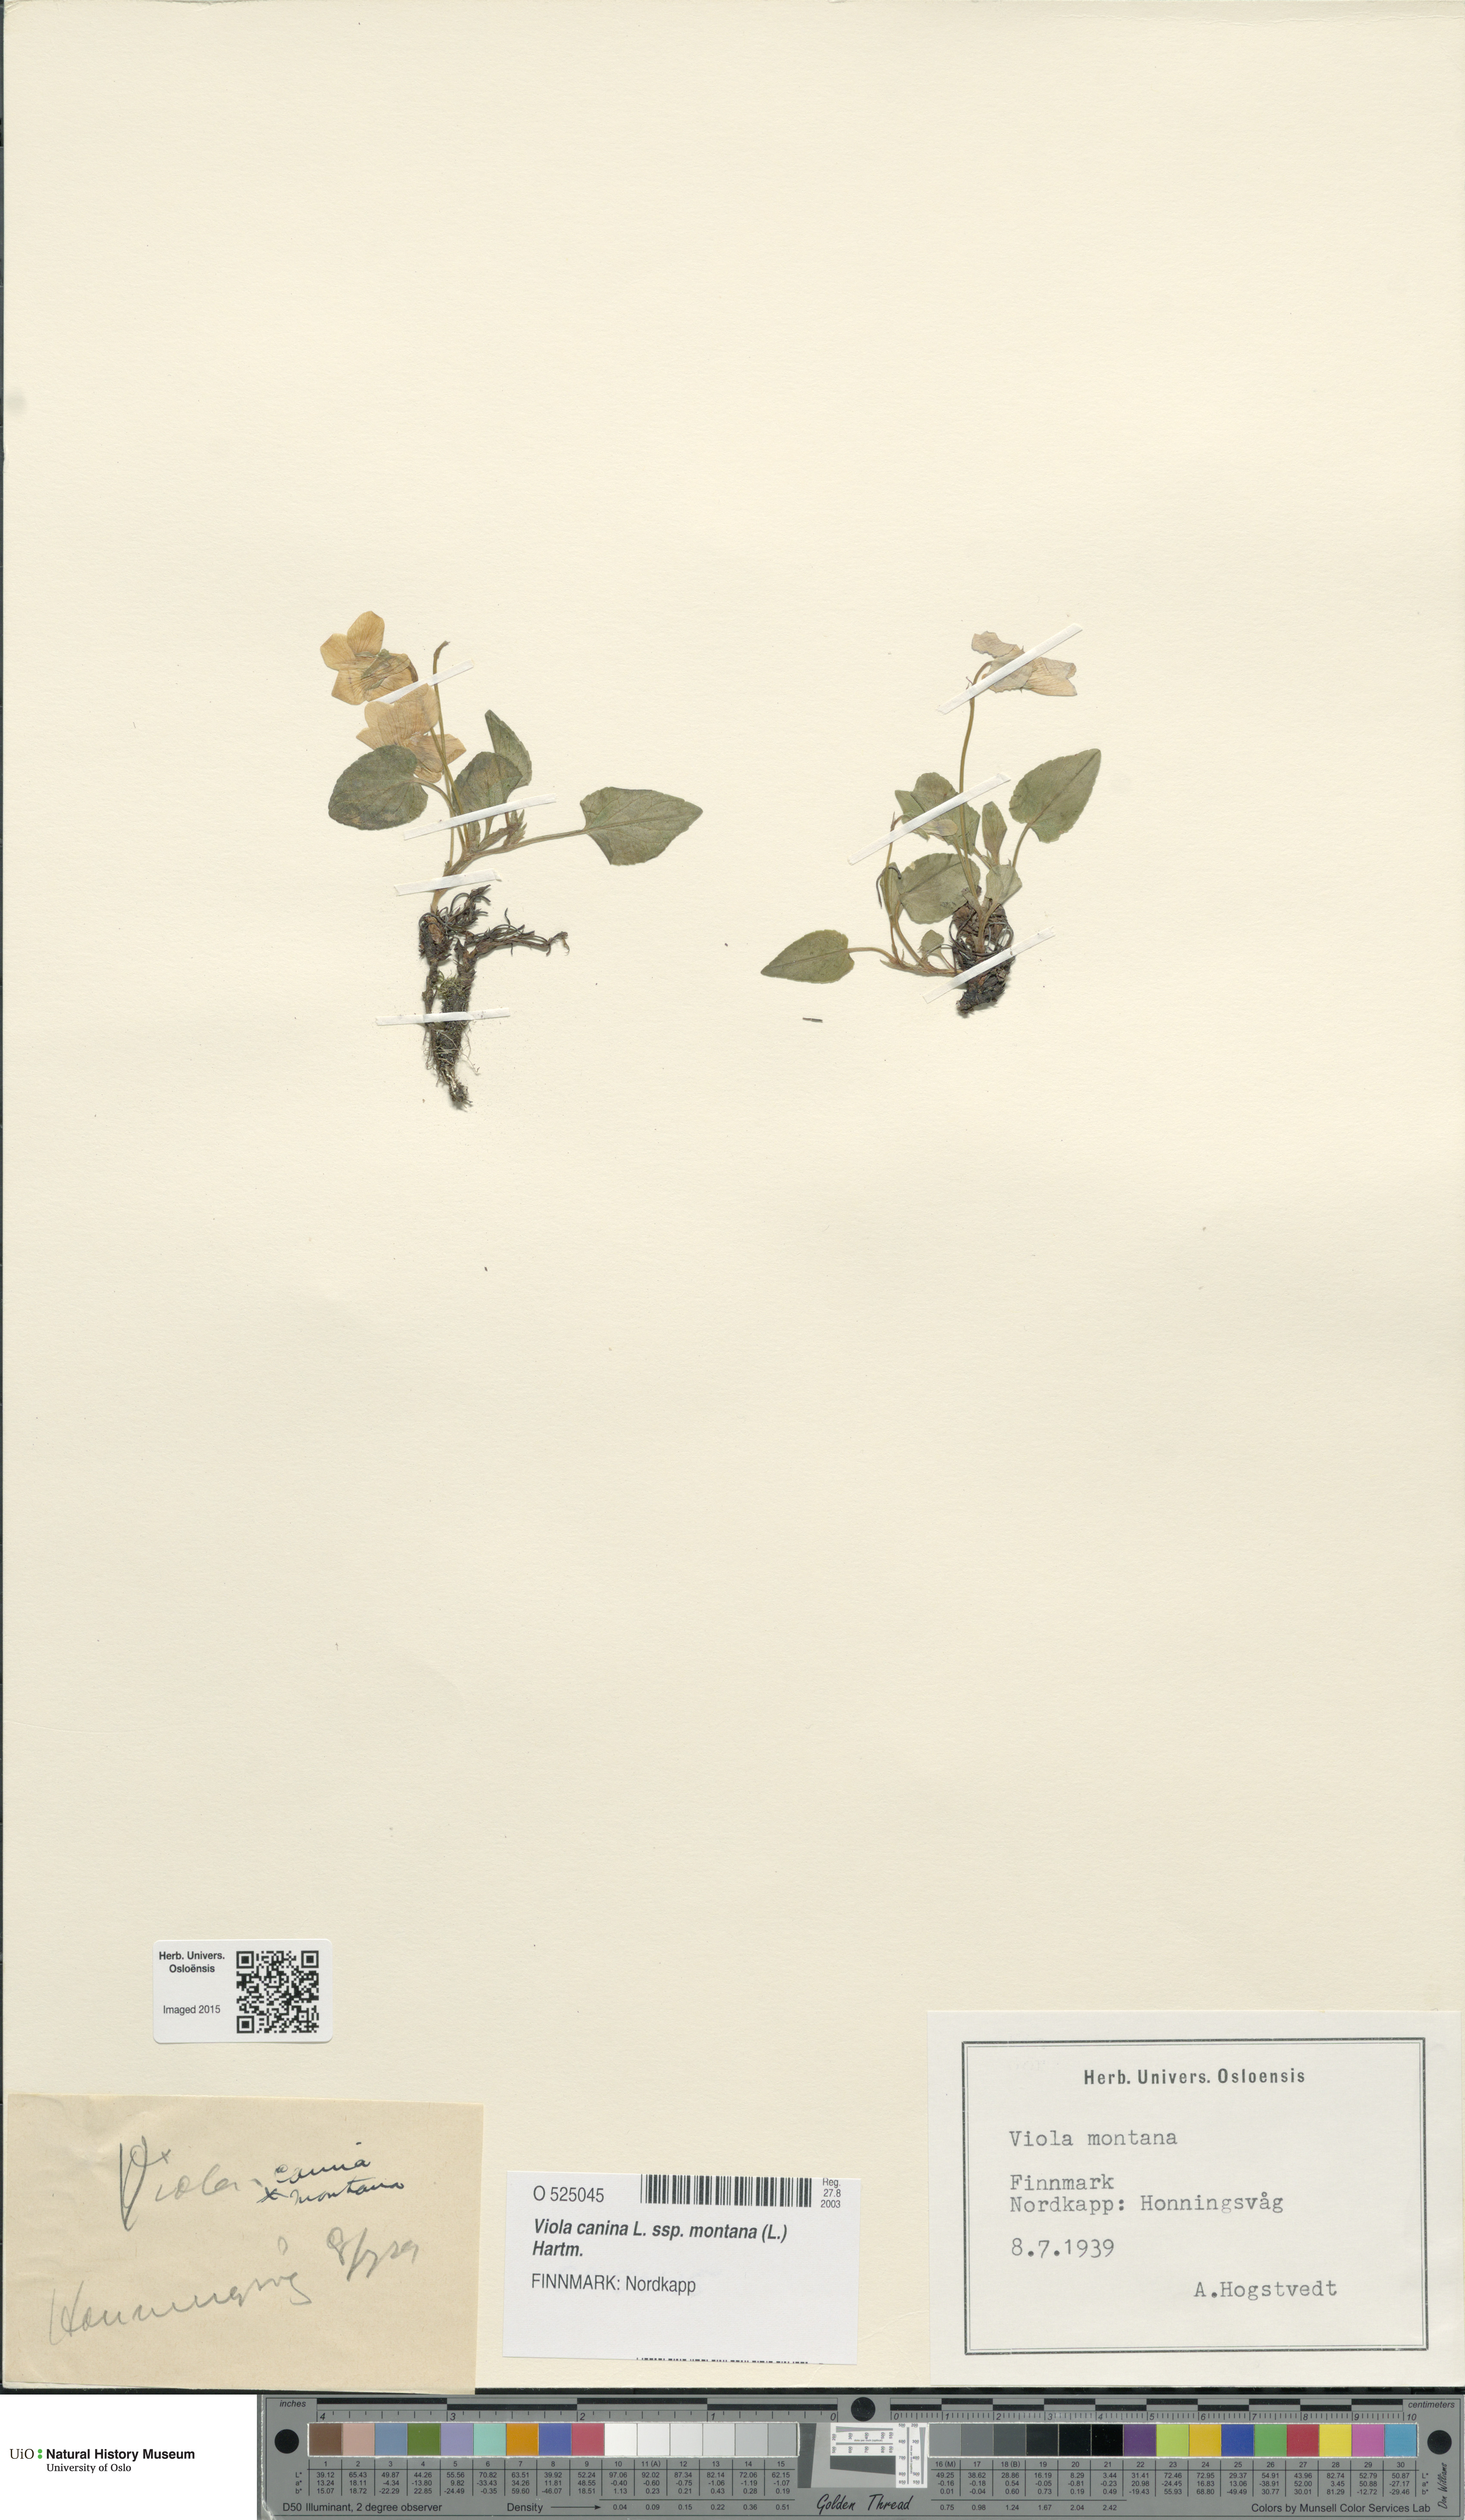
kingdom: Plantae
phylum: Tracheophyta
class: Magnoliopsida
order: Malpighiales
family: Violaceae
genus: Viola
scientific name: Viola ruppii
